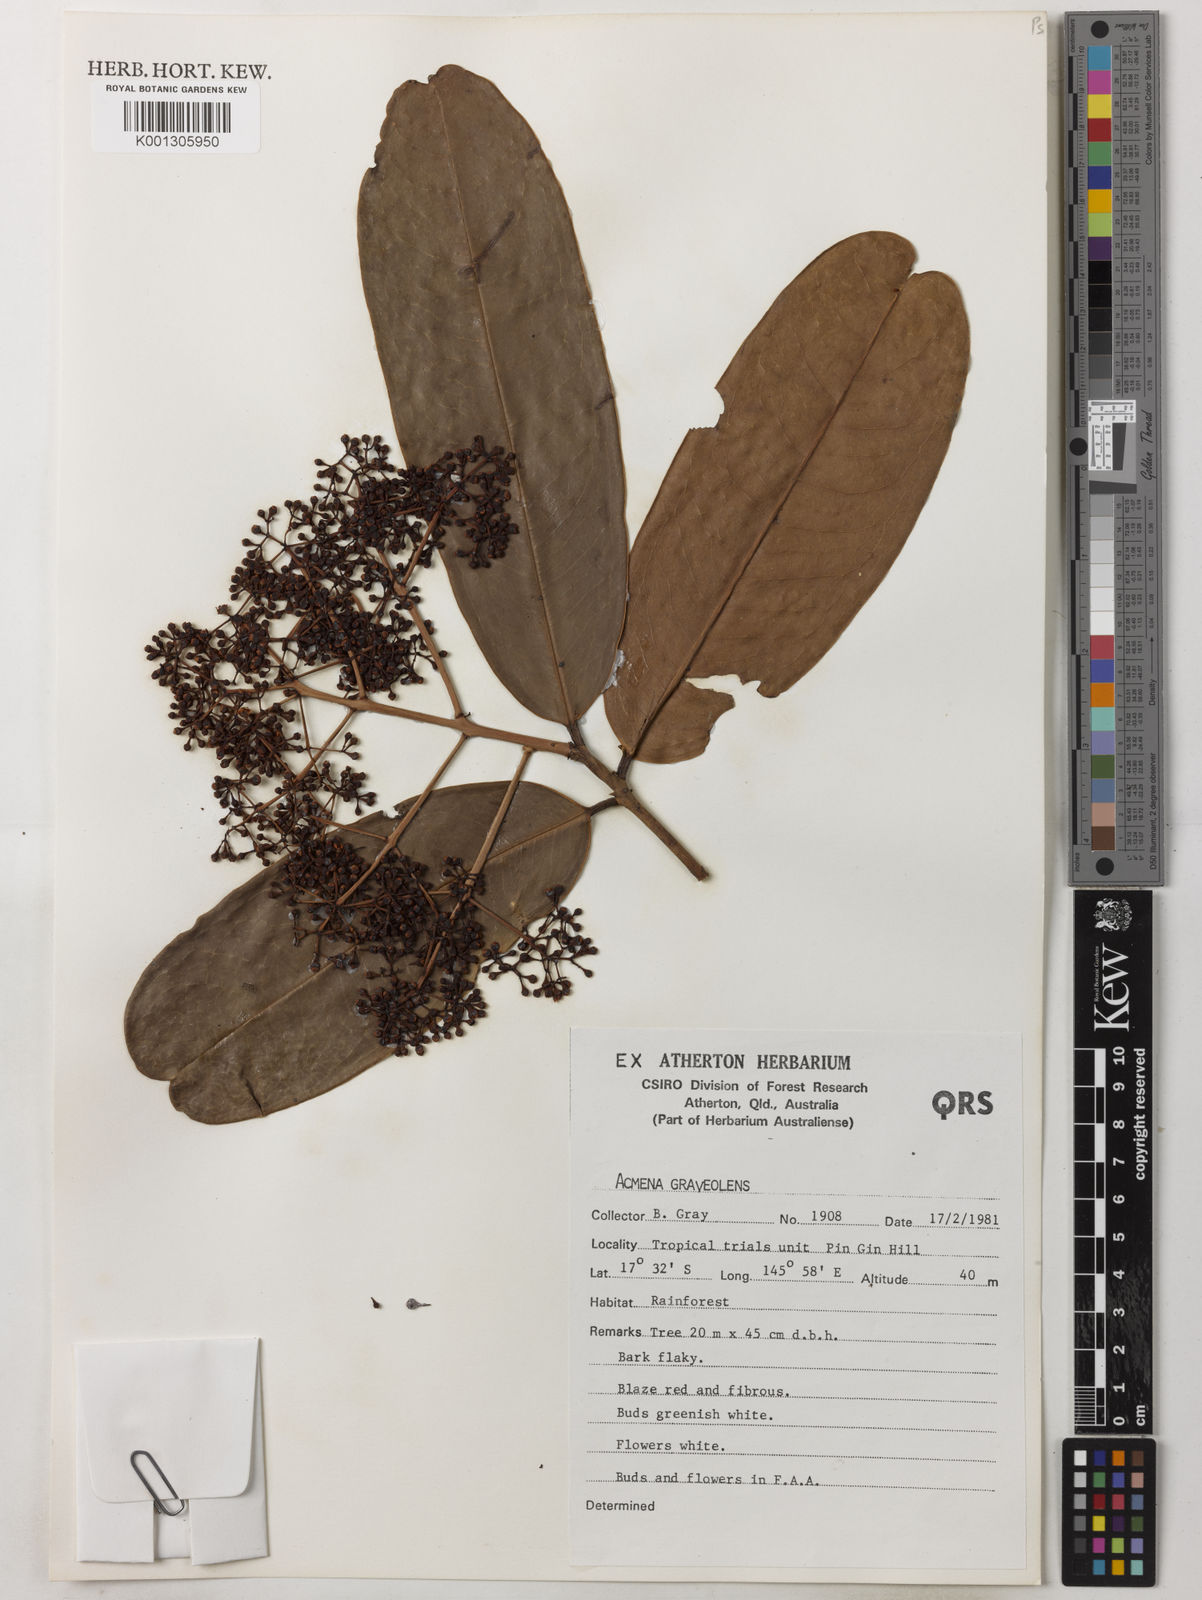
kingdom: Plantae
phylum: Tracheophyta
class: Magnoliopsida
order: Myrtales
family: Myrtaceae
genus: Syzygium
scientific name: Syzygium graveolens
